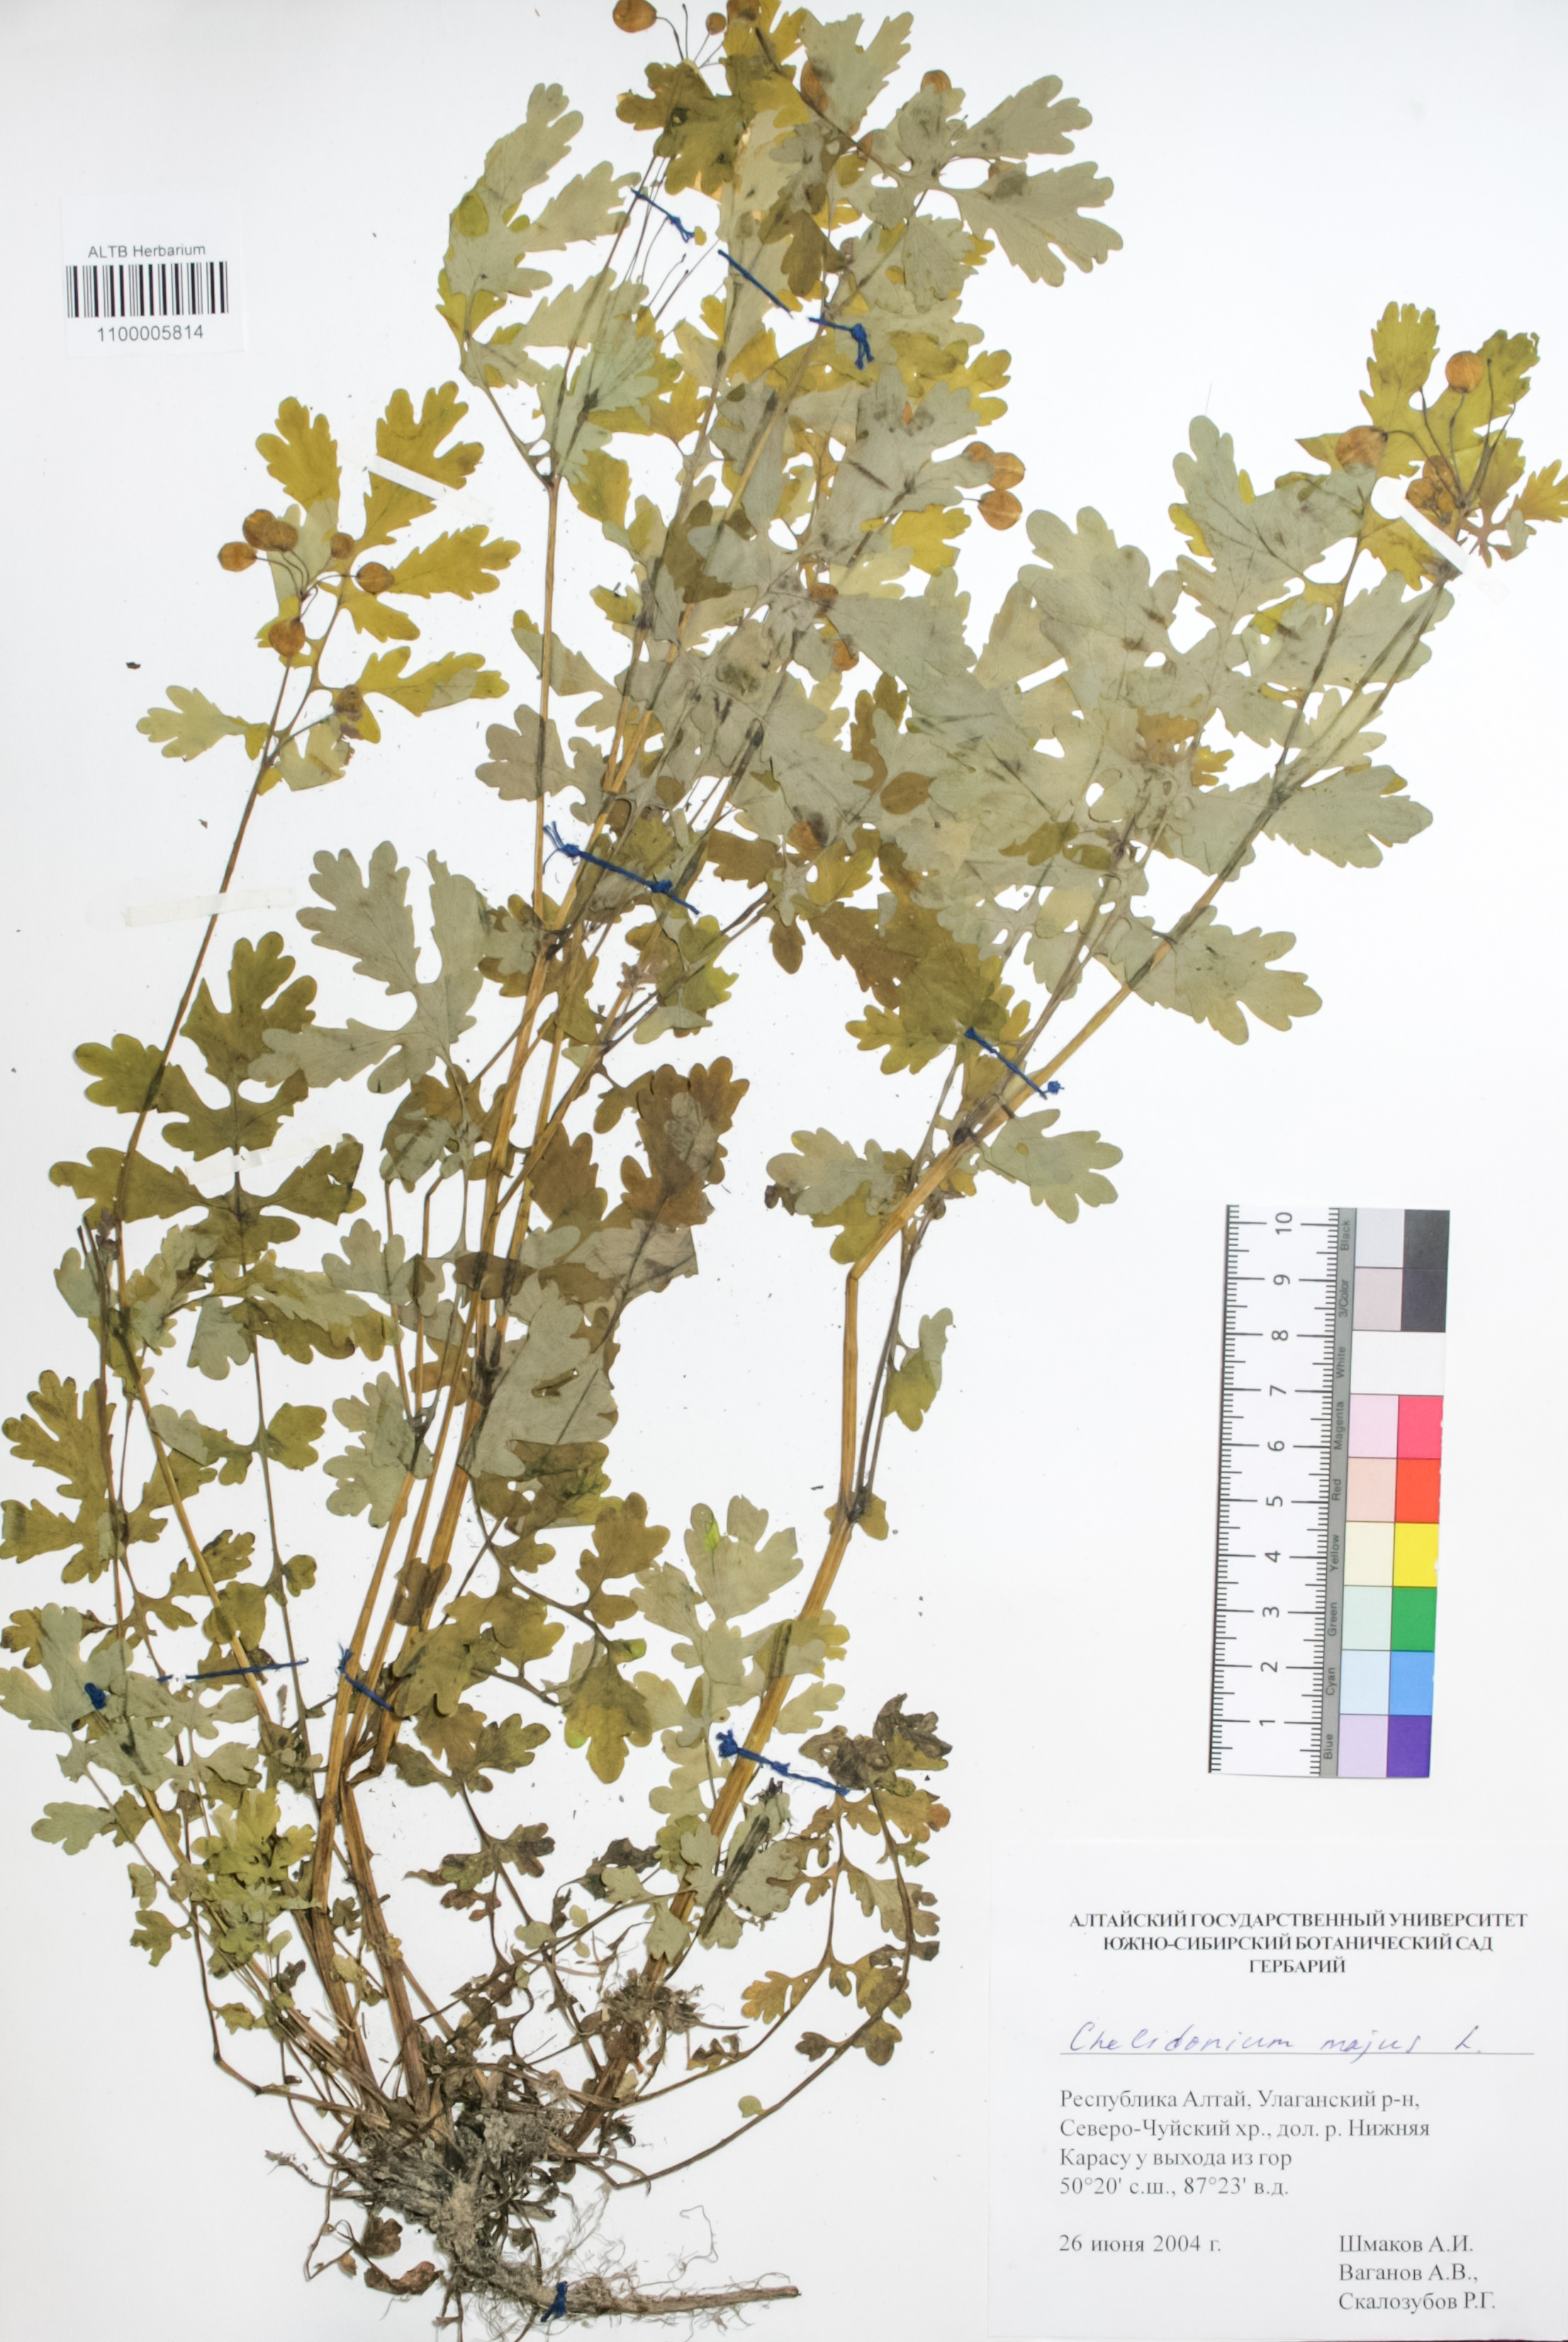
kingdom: Plantae
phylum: Tracheophyta
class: Magnoliopsida
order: Ranunculales
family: Papaveraceae
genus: Chelidonium
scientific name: Chelidonium majus
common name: Greater celandine
